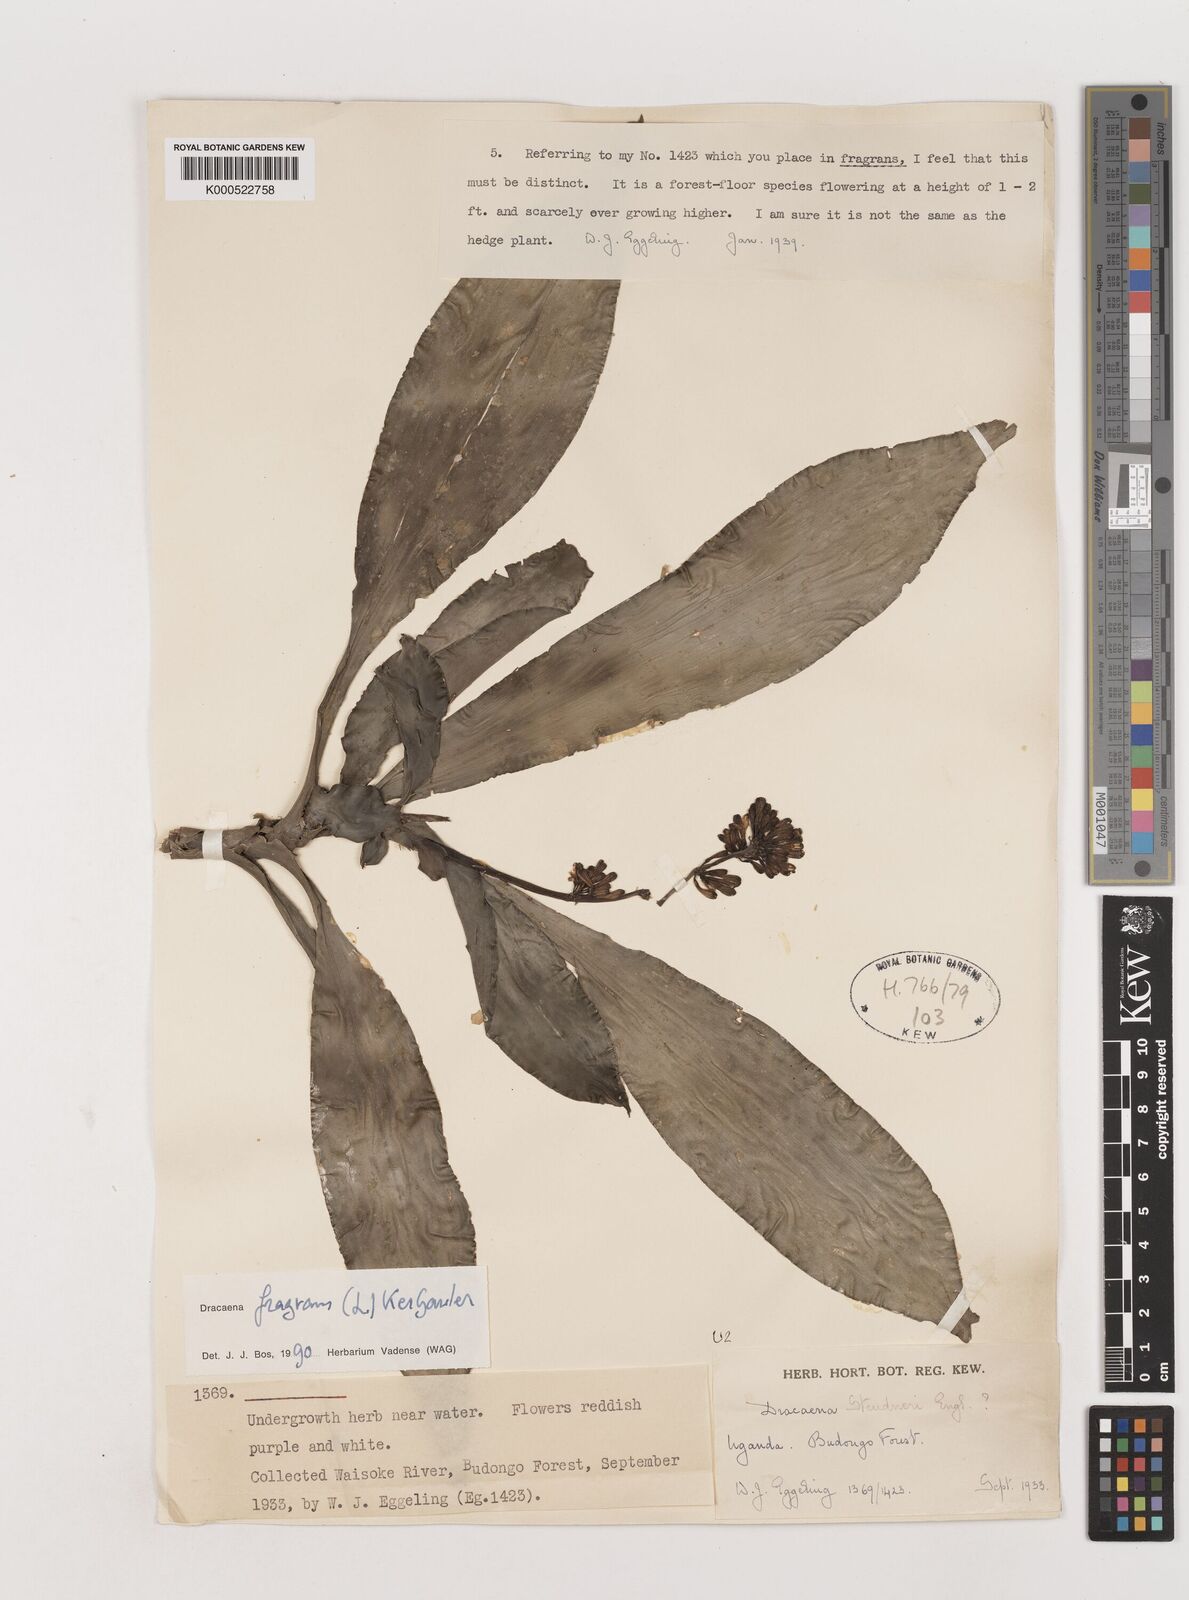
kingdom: Plantae
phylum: Tracheophyta
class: Liliopsida
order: Asparagales
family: Asparagaceae
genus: Dracaena
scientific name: Dracaena fragrans
